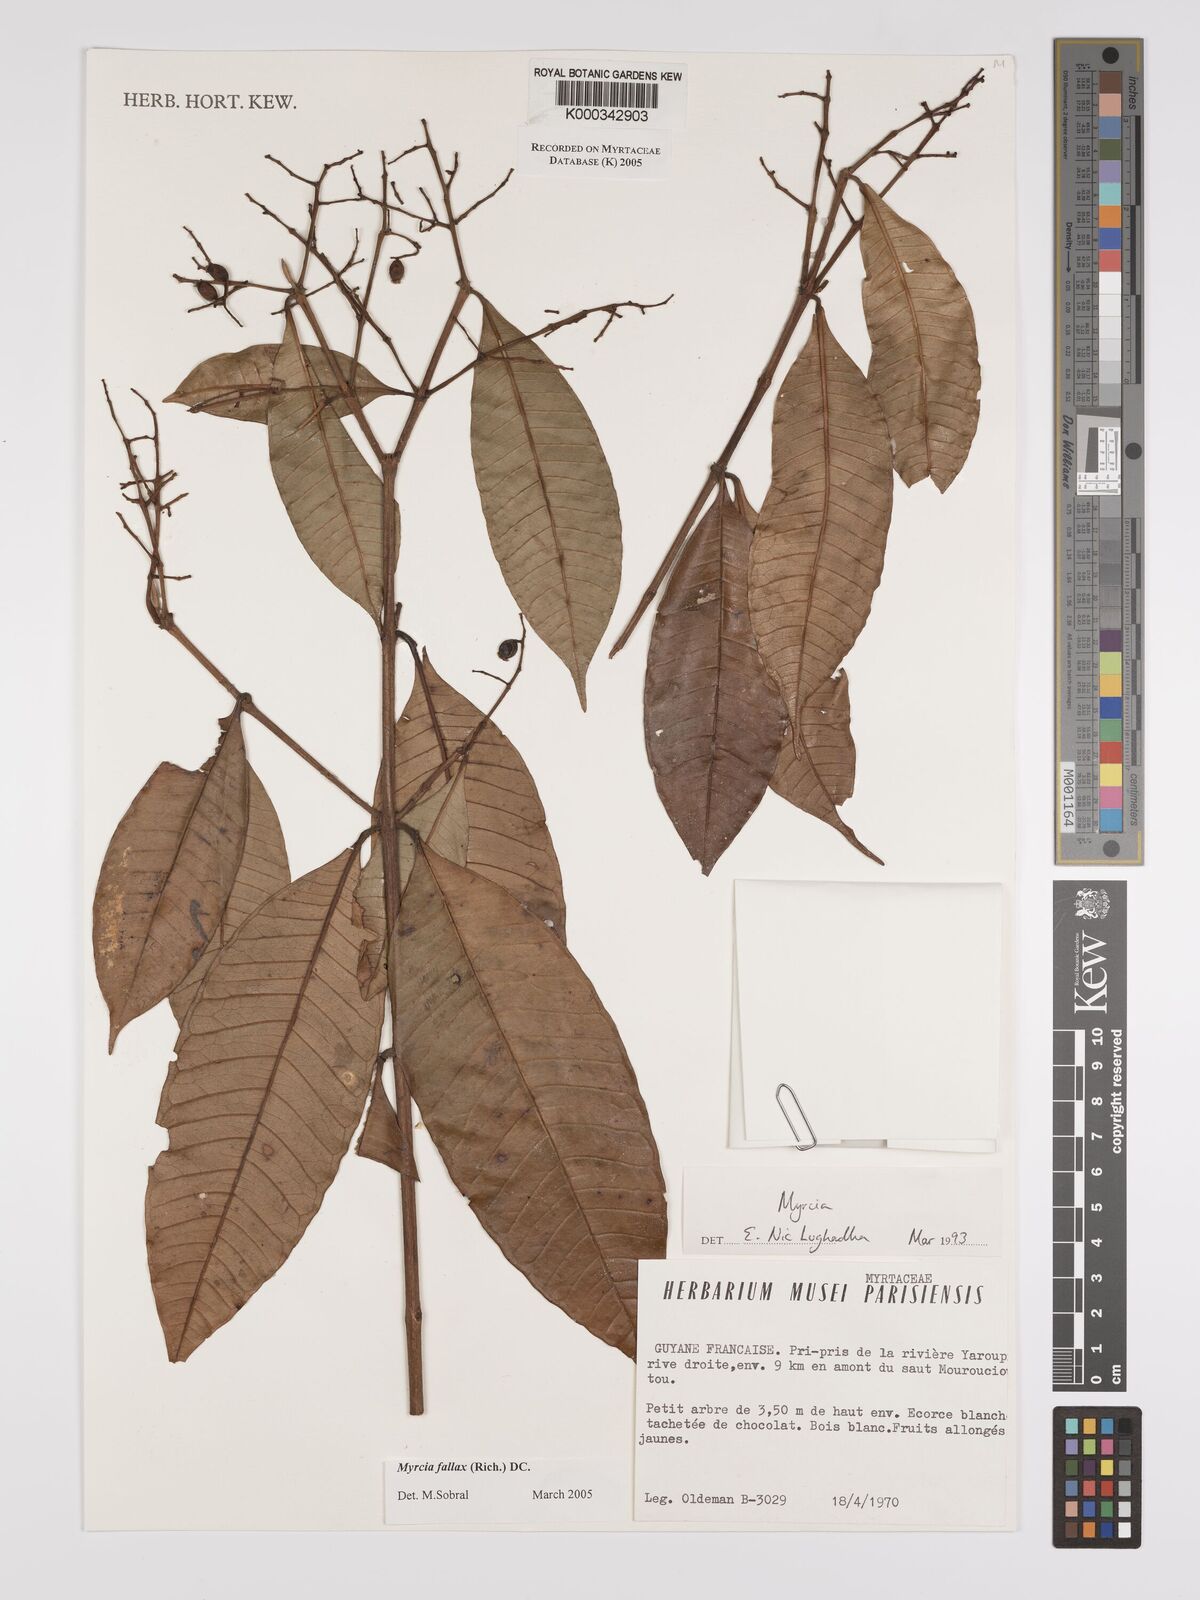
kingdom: Plantae
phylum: Tracheophyta
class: Magnoliopsida
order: Myrtales
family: Myrtaceae
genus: Myrcia
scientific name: Myrcia splendens
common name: Surinam cherry
